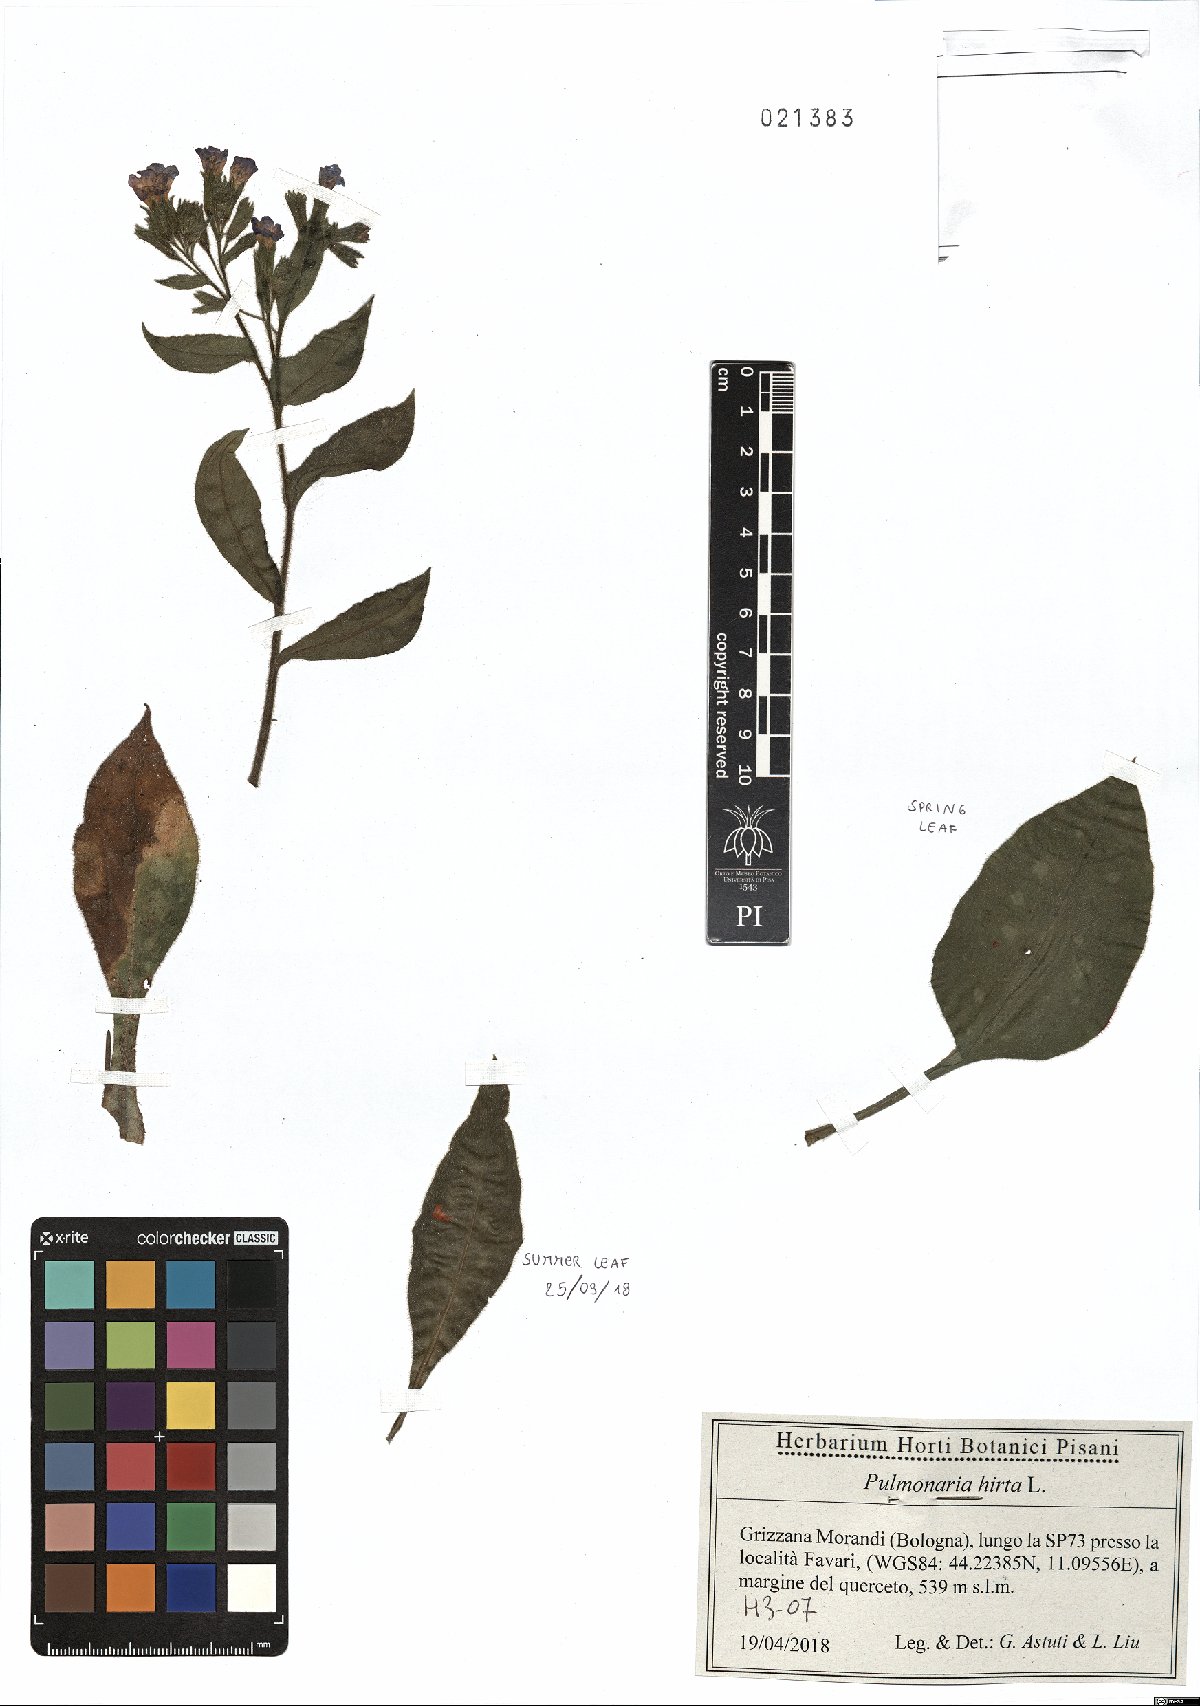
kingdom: Plantae
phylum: Tracheophyta
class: Magnoliopsida
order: Boraginales
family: Boraginaceae
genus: Pulmonaria
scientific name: Pulmonaria hirta
